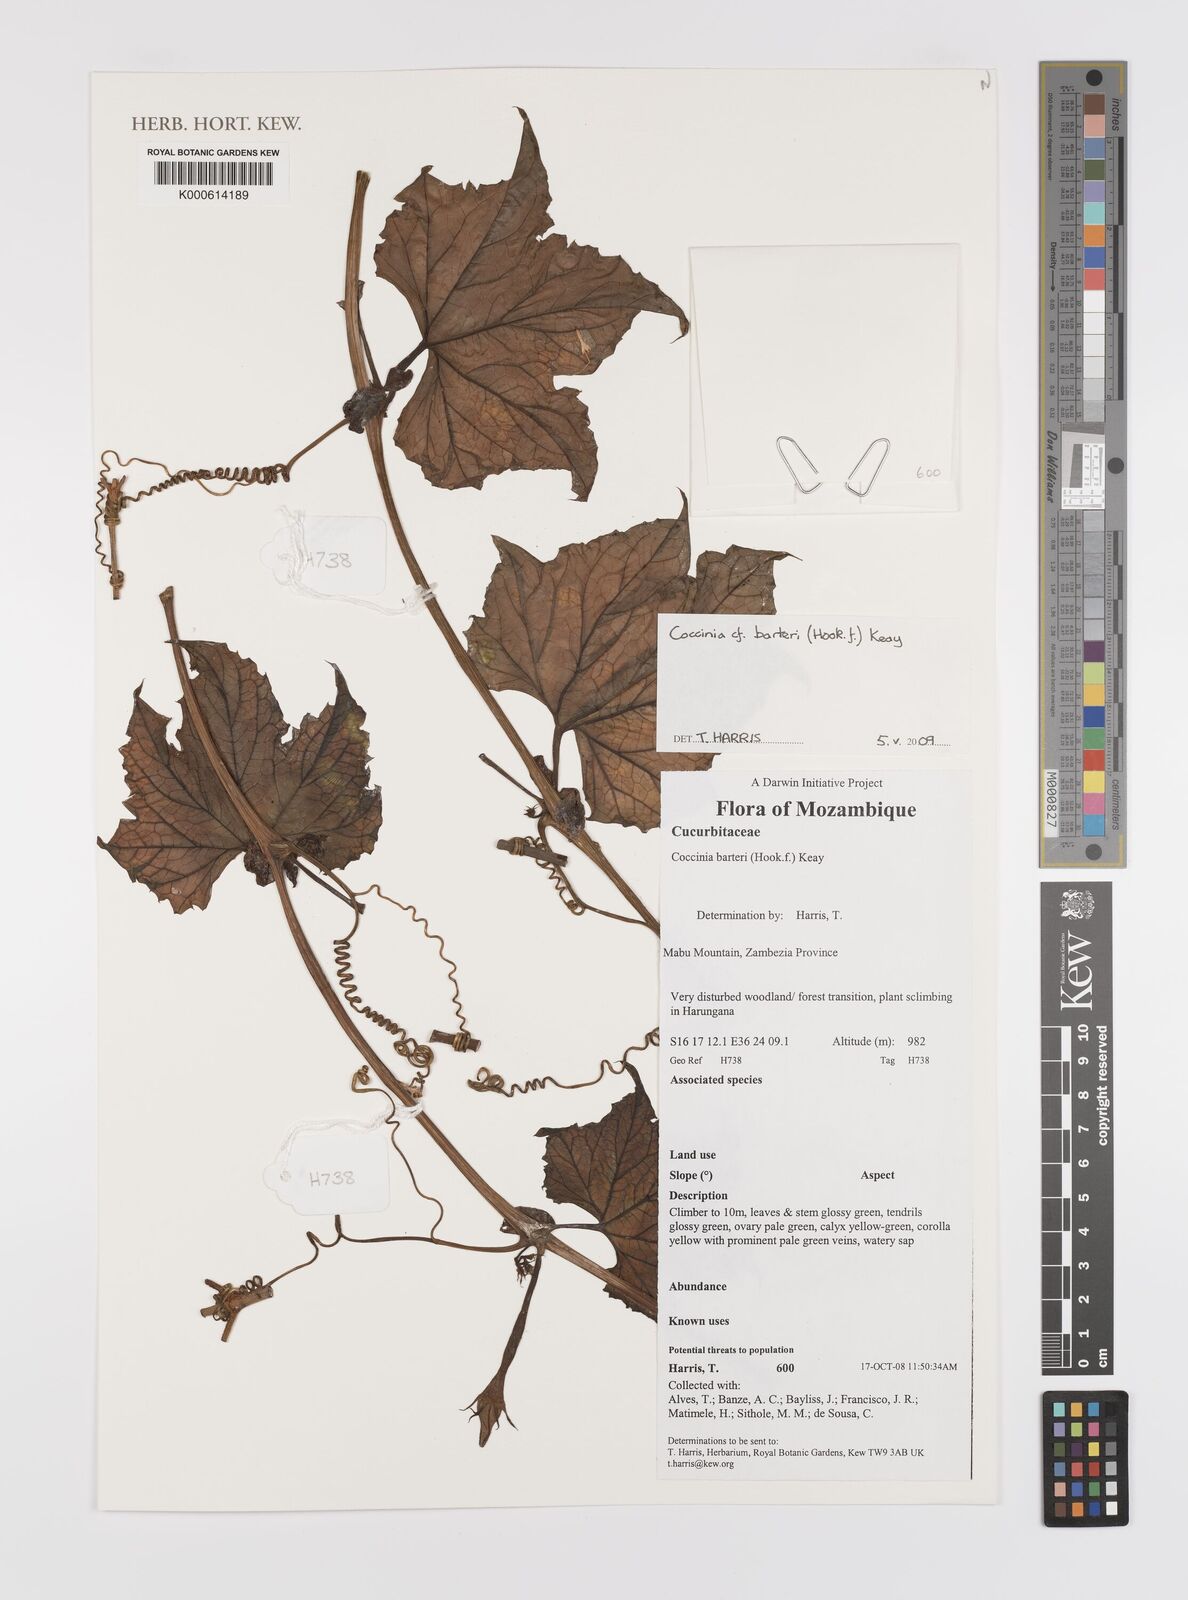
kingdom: Plantae
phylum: Tracheophyta
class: Magnoliopsida
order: Cucurbitales
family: Cucurbitaceae
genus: Coccinia
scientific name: Coccinia barteri
